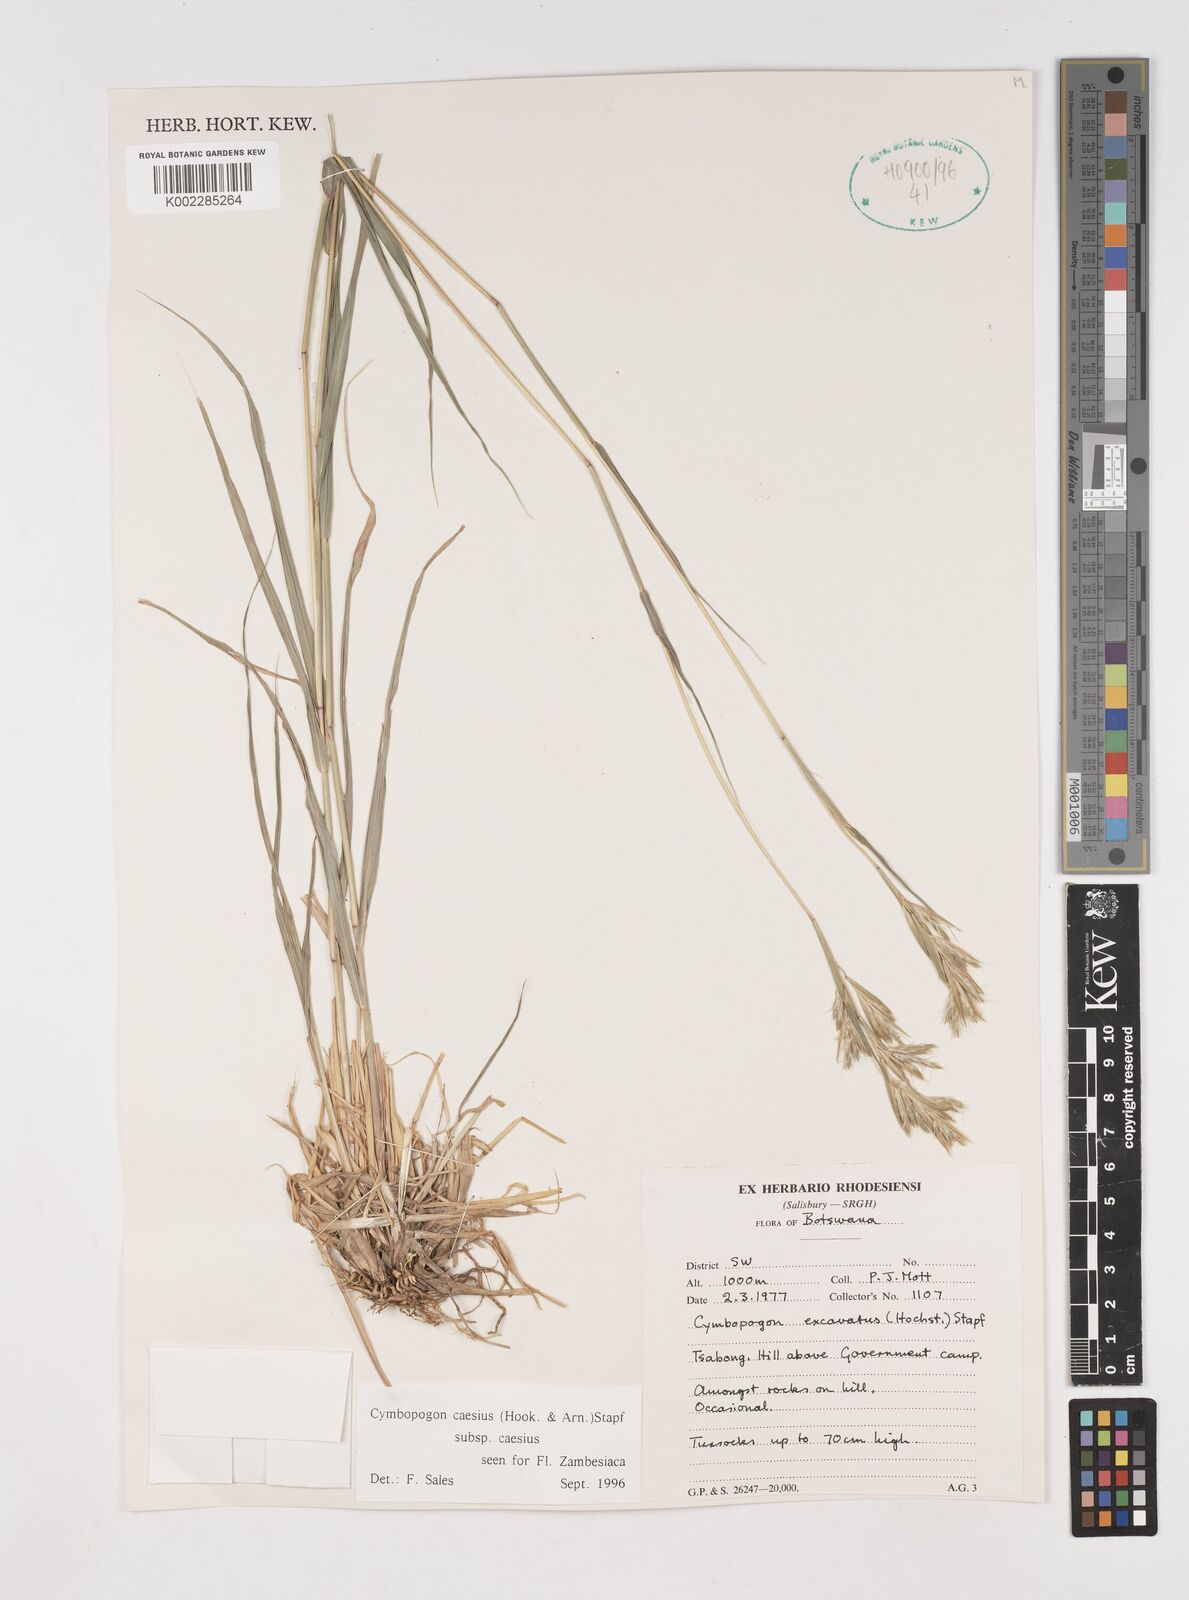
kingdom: Plantae
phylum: Tracheophyta
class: Liliopsida
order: Poales
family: Poaceae
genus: Cymbopogon
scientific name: Cymbopogon caesius
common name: Kachi grass
